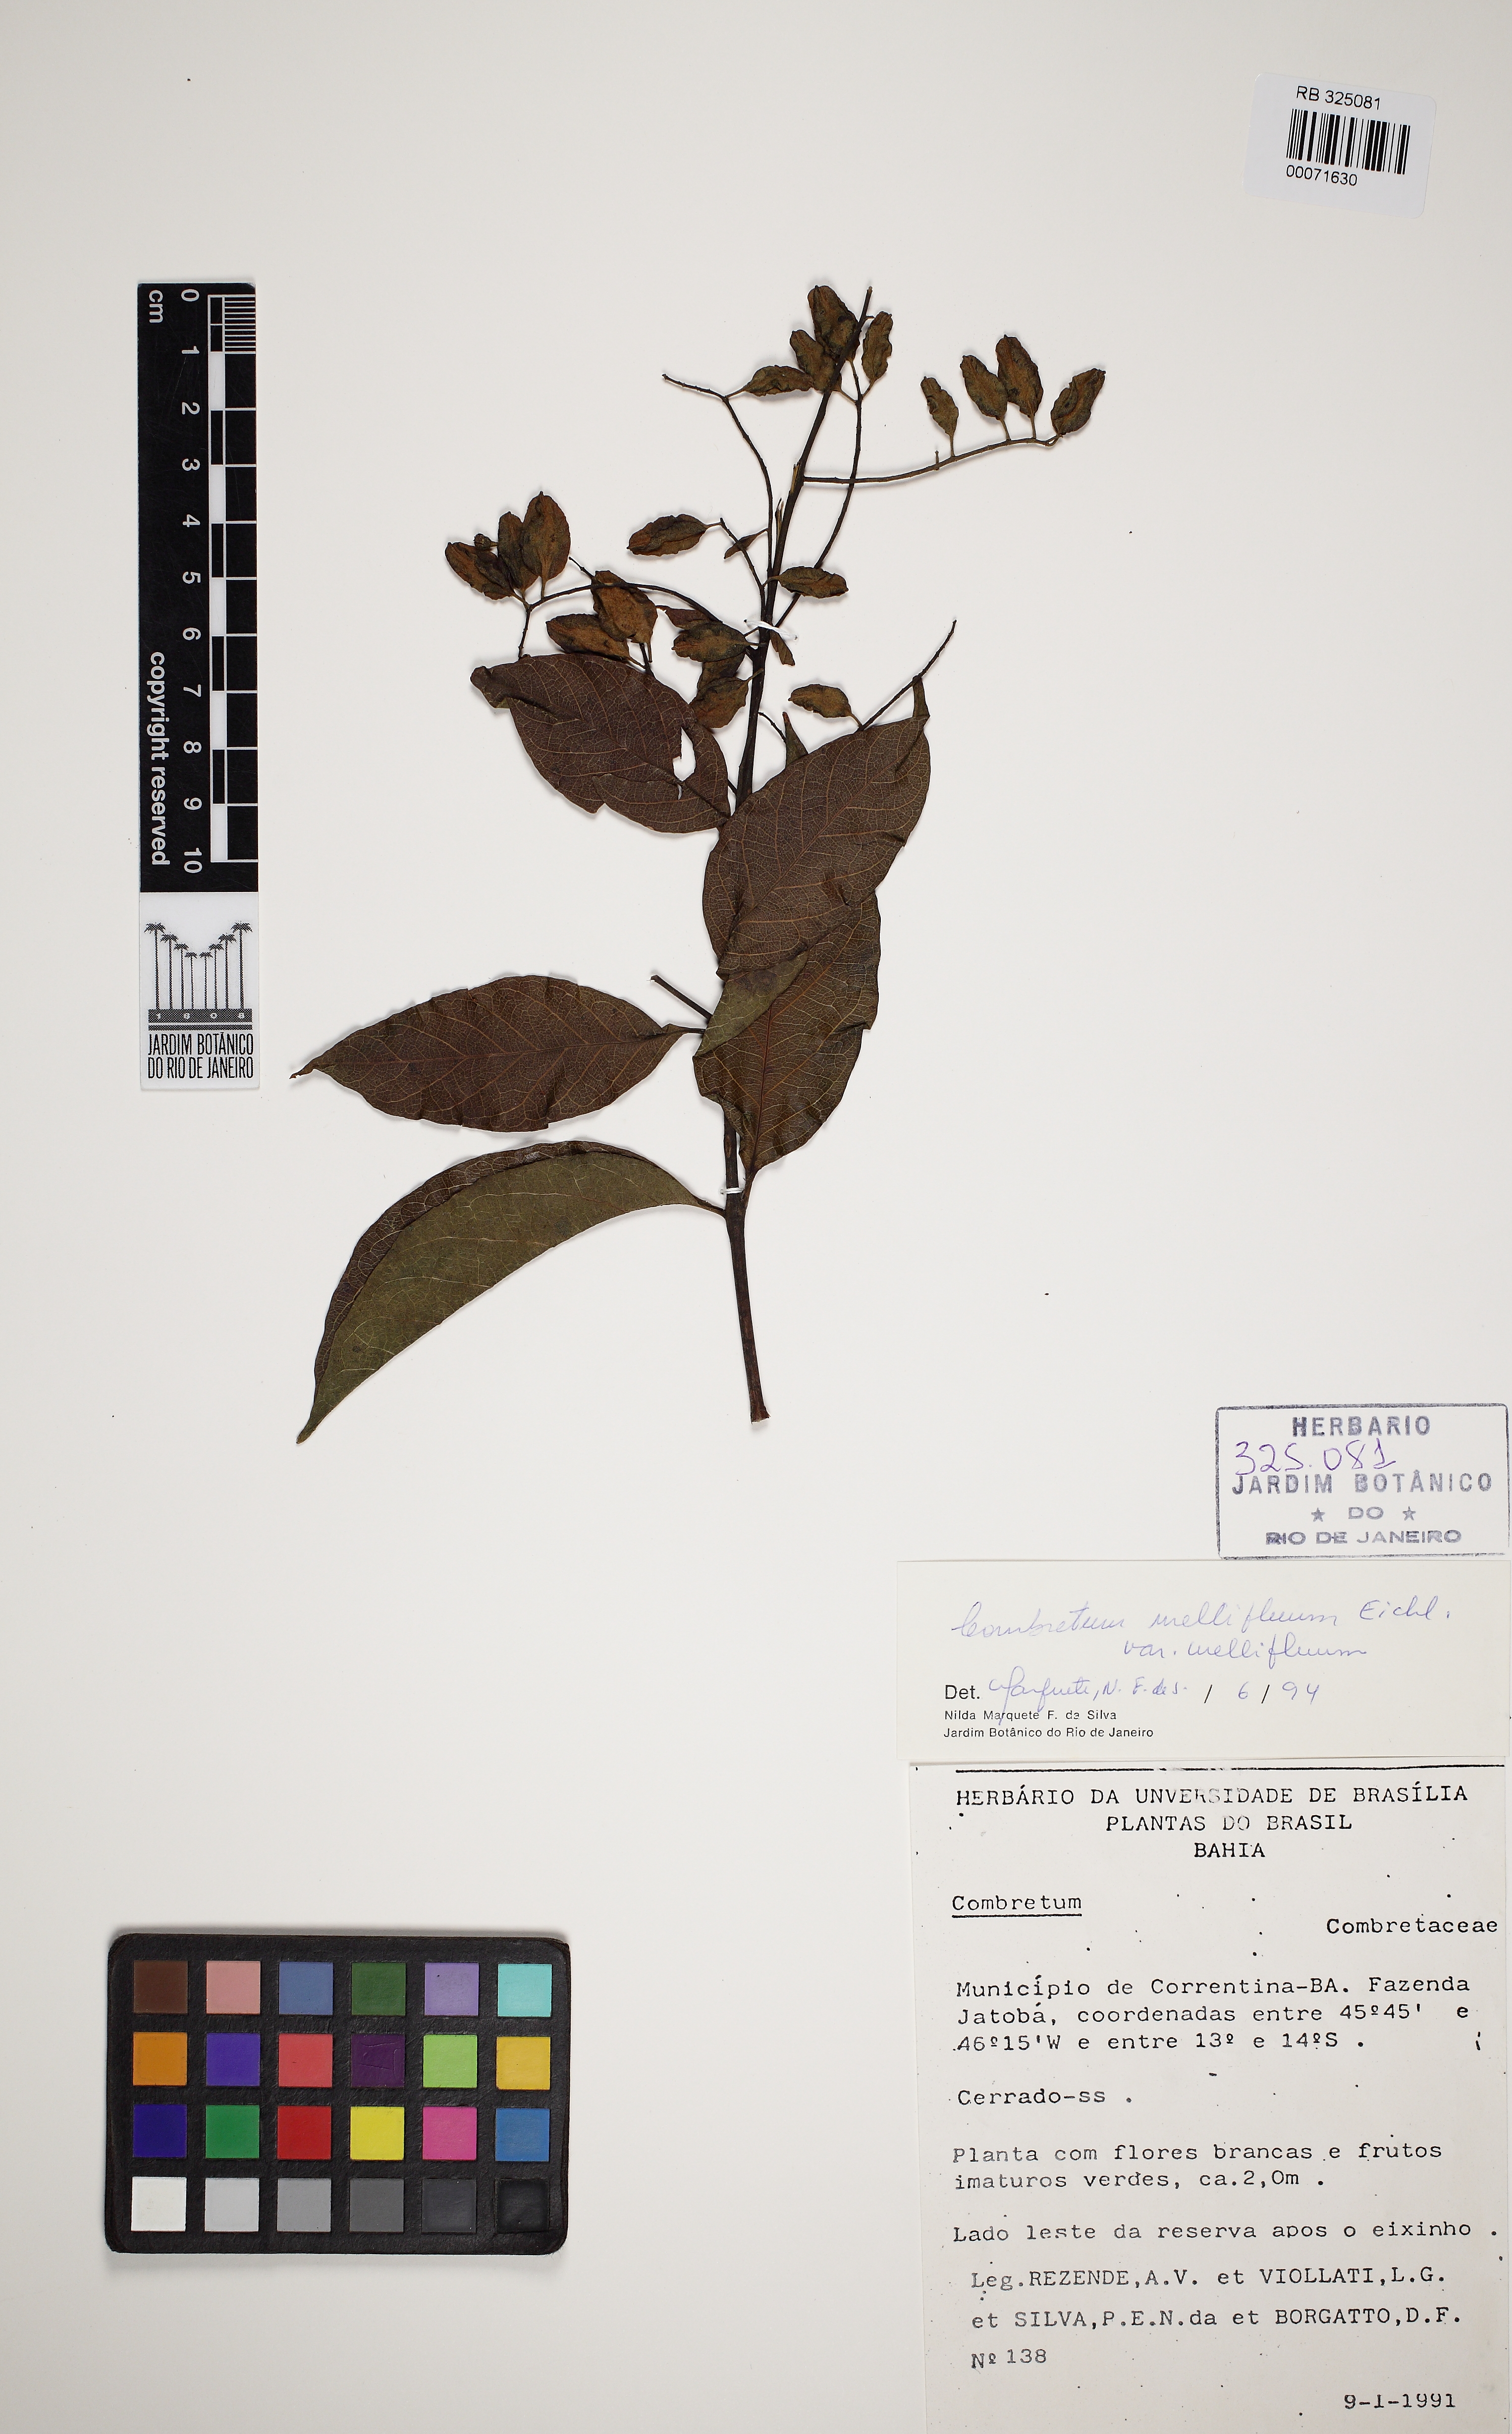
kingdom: Plantae
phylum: Tracheophyta
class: Magnoliopsida
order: Myrtales
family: Combretaceae
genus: Combretum
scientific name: Combretum mellifluum
